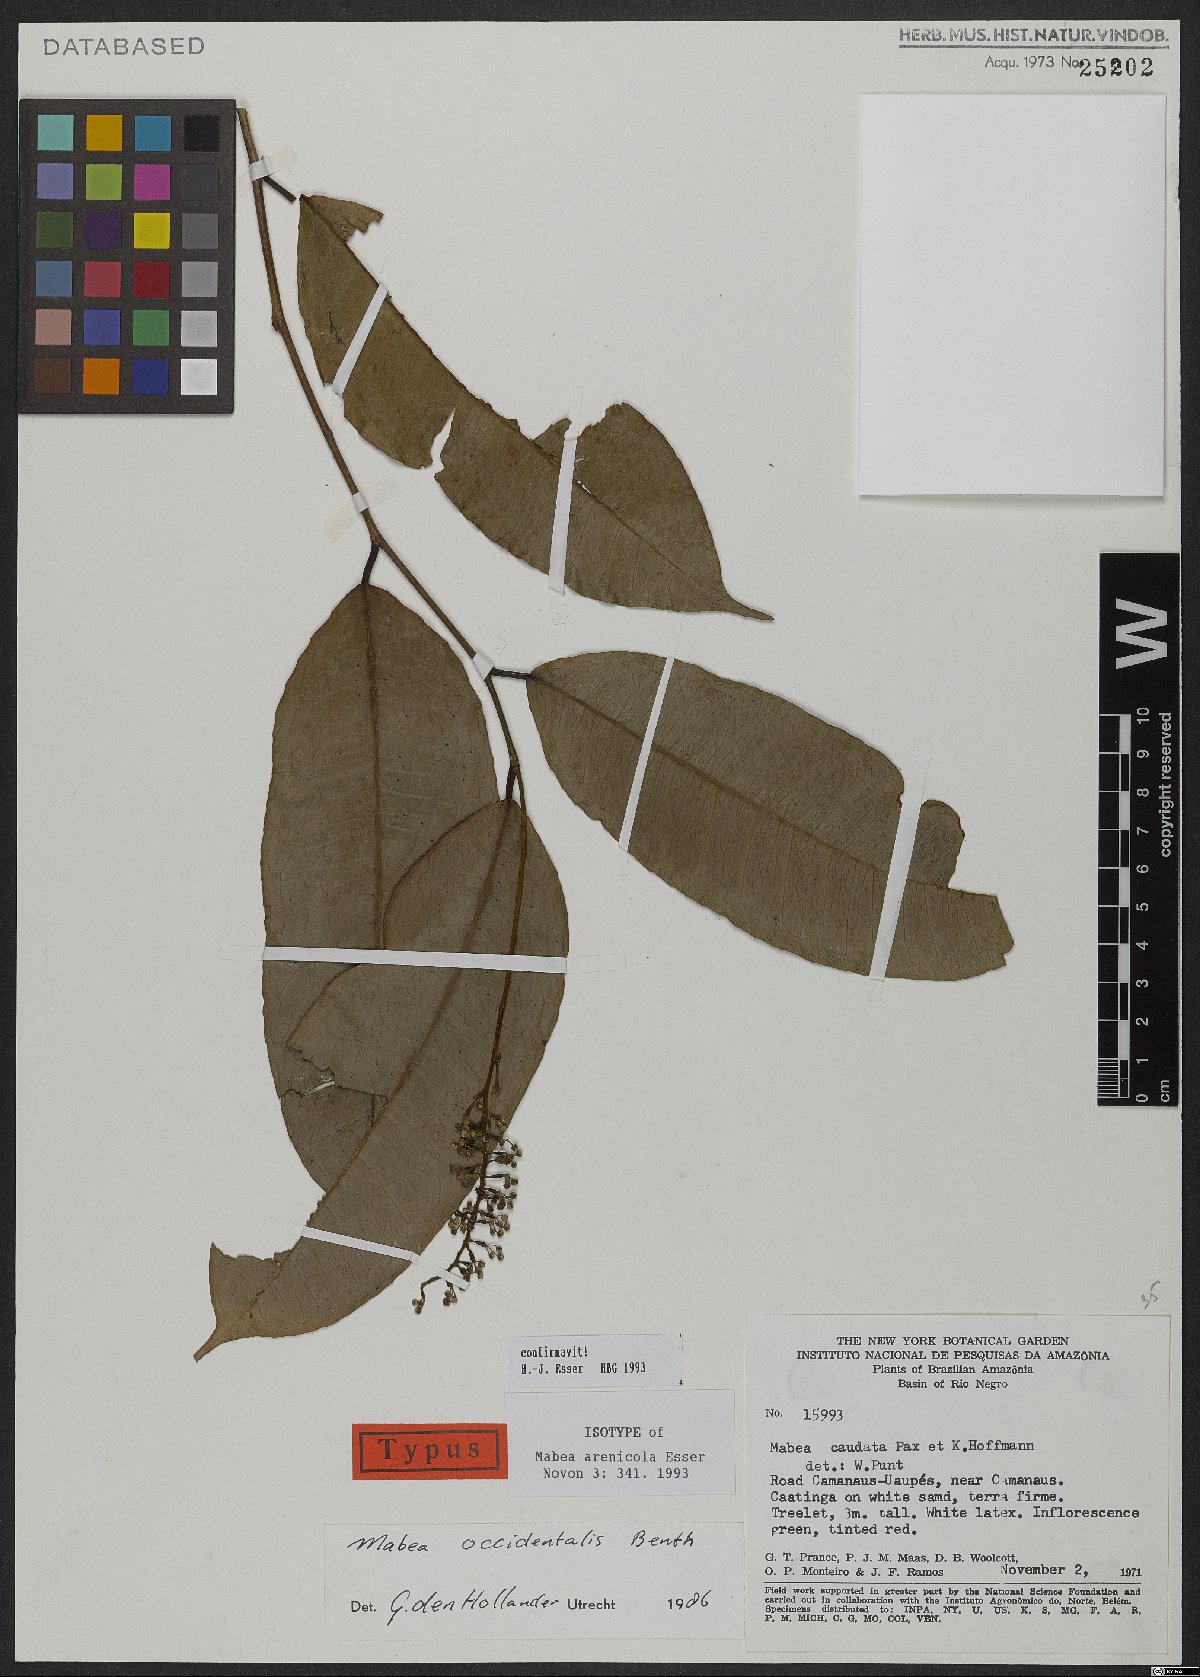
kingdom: Plantae
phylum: Tracheophyta
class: Magnoliopsida
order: Malpighiales
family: Euphorbiaceae
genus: Mabea
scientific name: Mabea arenicola
